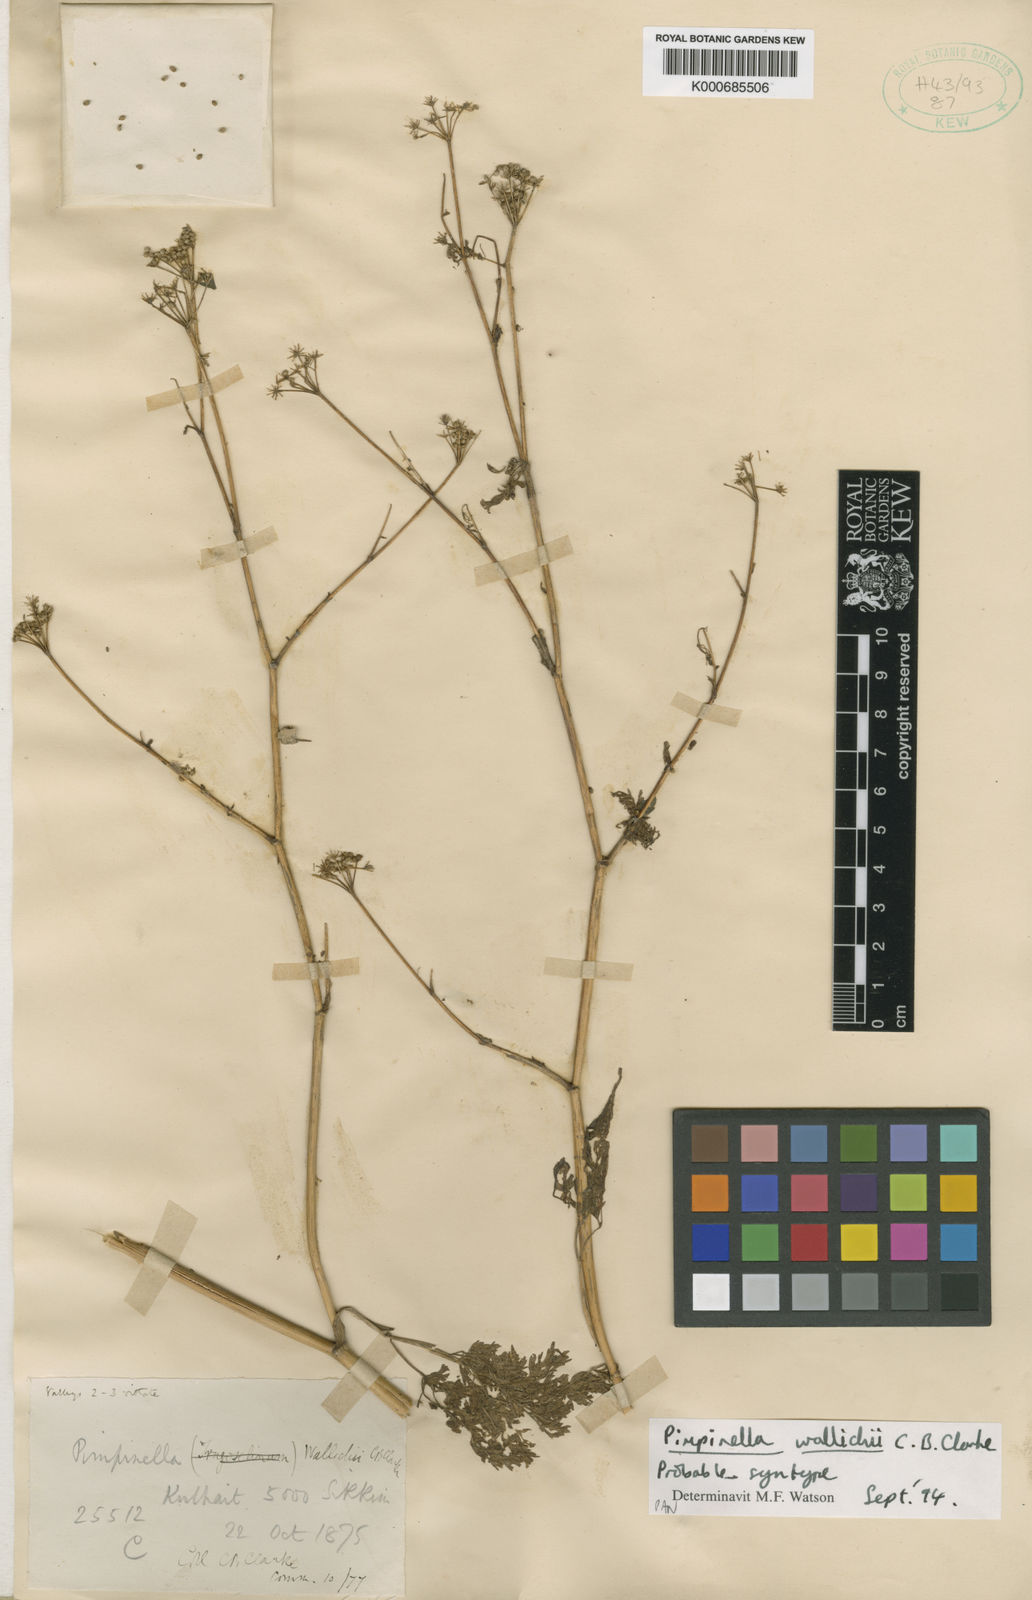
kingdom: Plantae
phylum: Tracheophyta
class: Magnoliopsida
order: Apiales
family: Apiaceae
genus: Pimpinella
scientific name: Pimpinella wallichii
